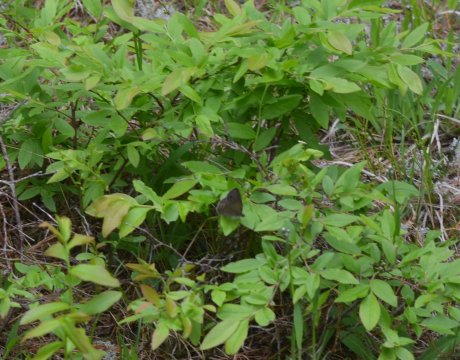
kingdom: Animalia
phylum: Arthropoda
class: Insecta
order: Lepidoptera
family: Nymphalidae
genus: Euptychia
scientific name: Euptychia cymela
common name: Little Wood Satyr
